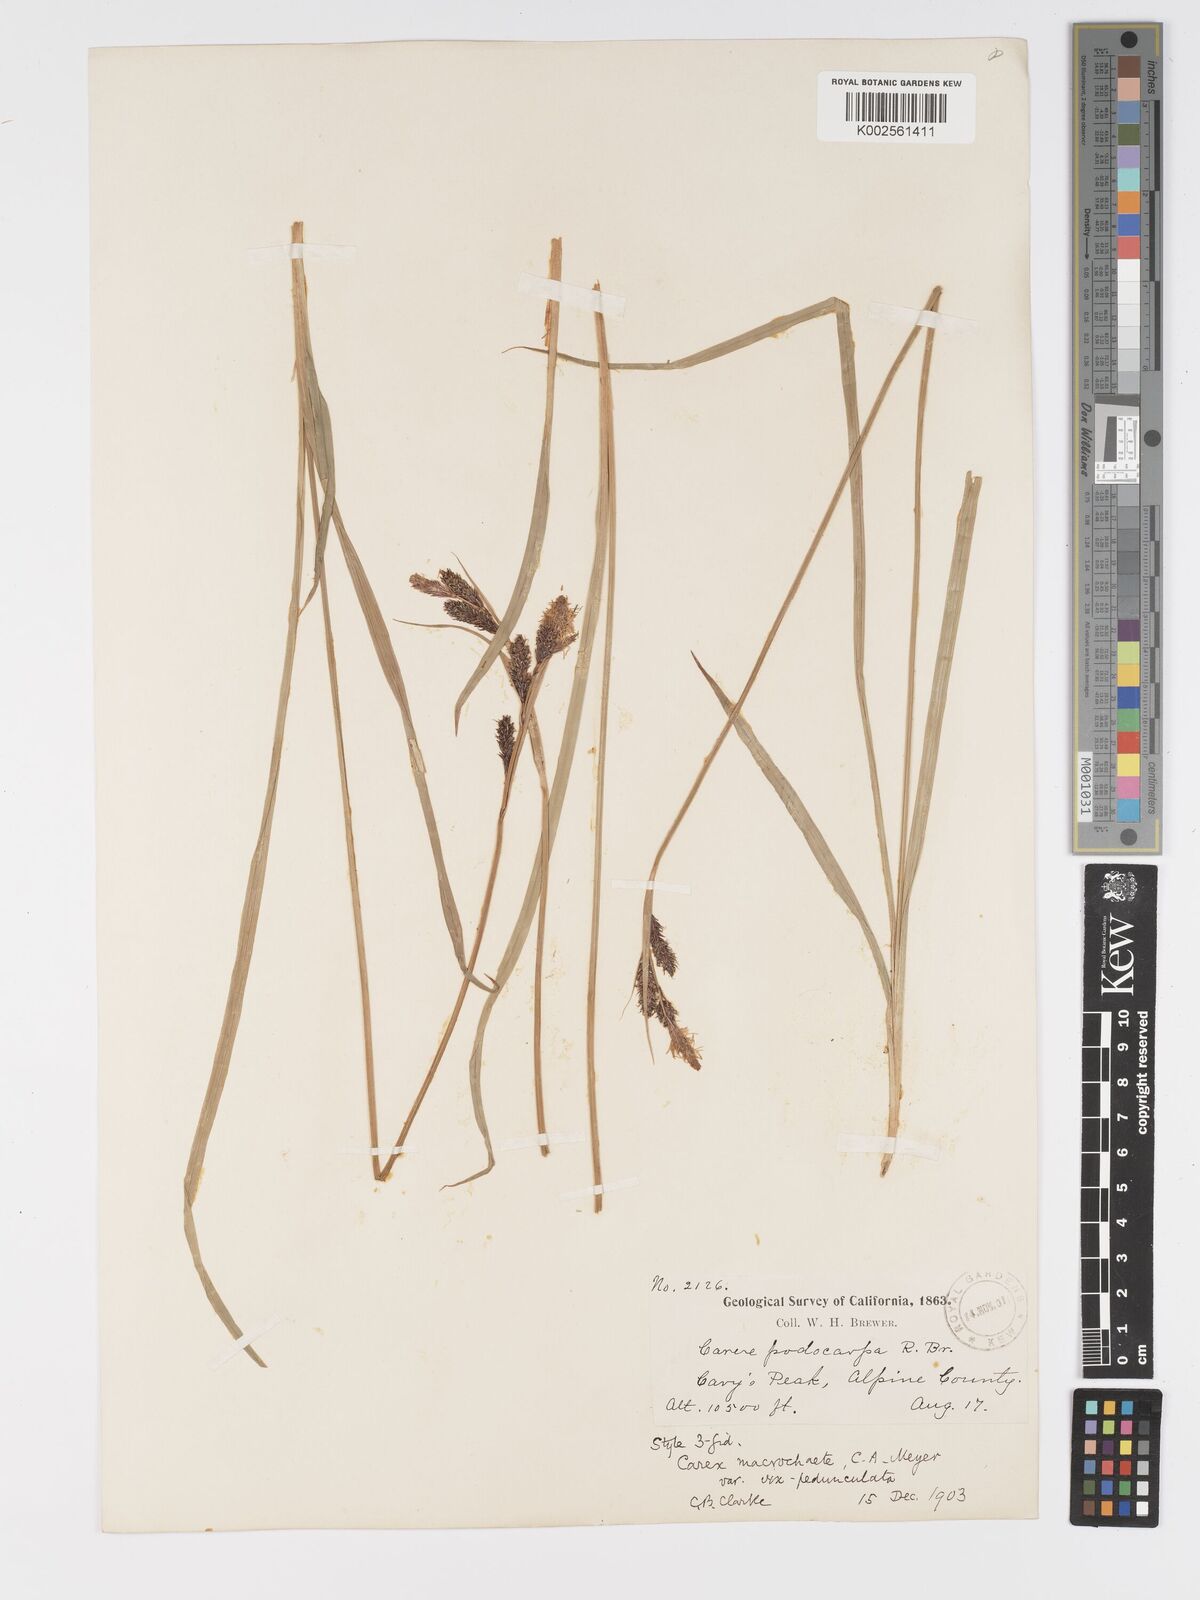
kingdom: Plantae
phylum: Tracheophyta
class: Liliopsida
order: Poales
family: Cyperaceae
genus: Carex
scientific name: Carex macrochaeta
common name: Alaska large awn sedge
